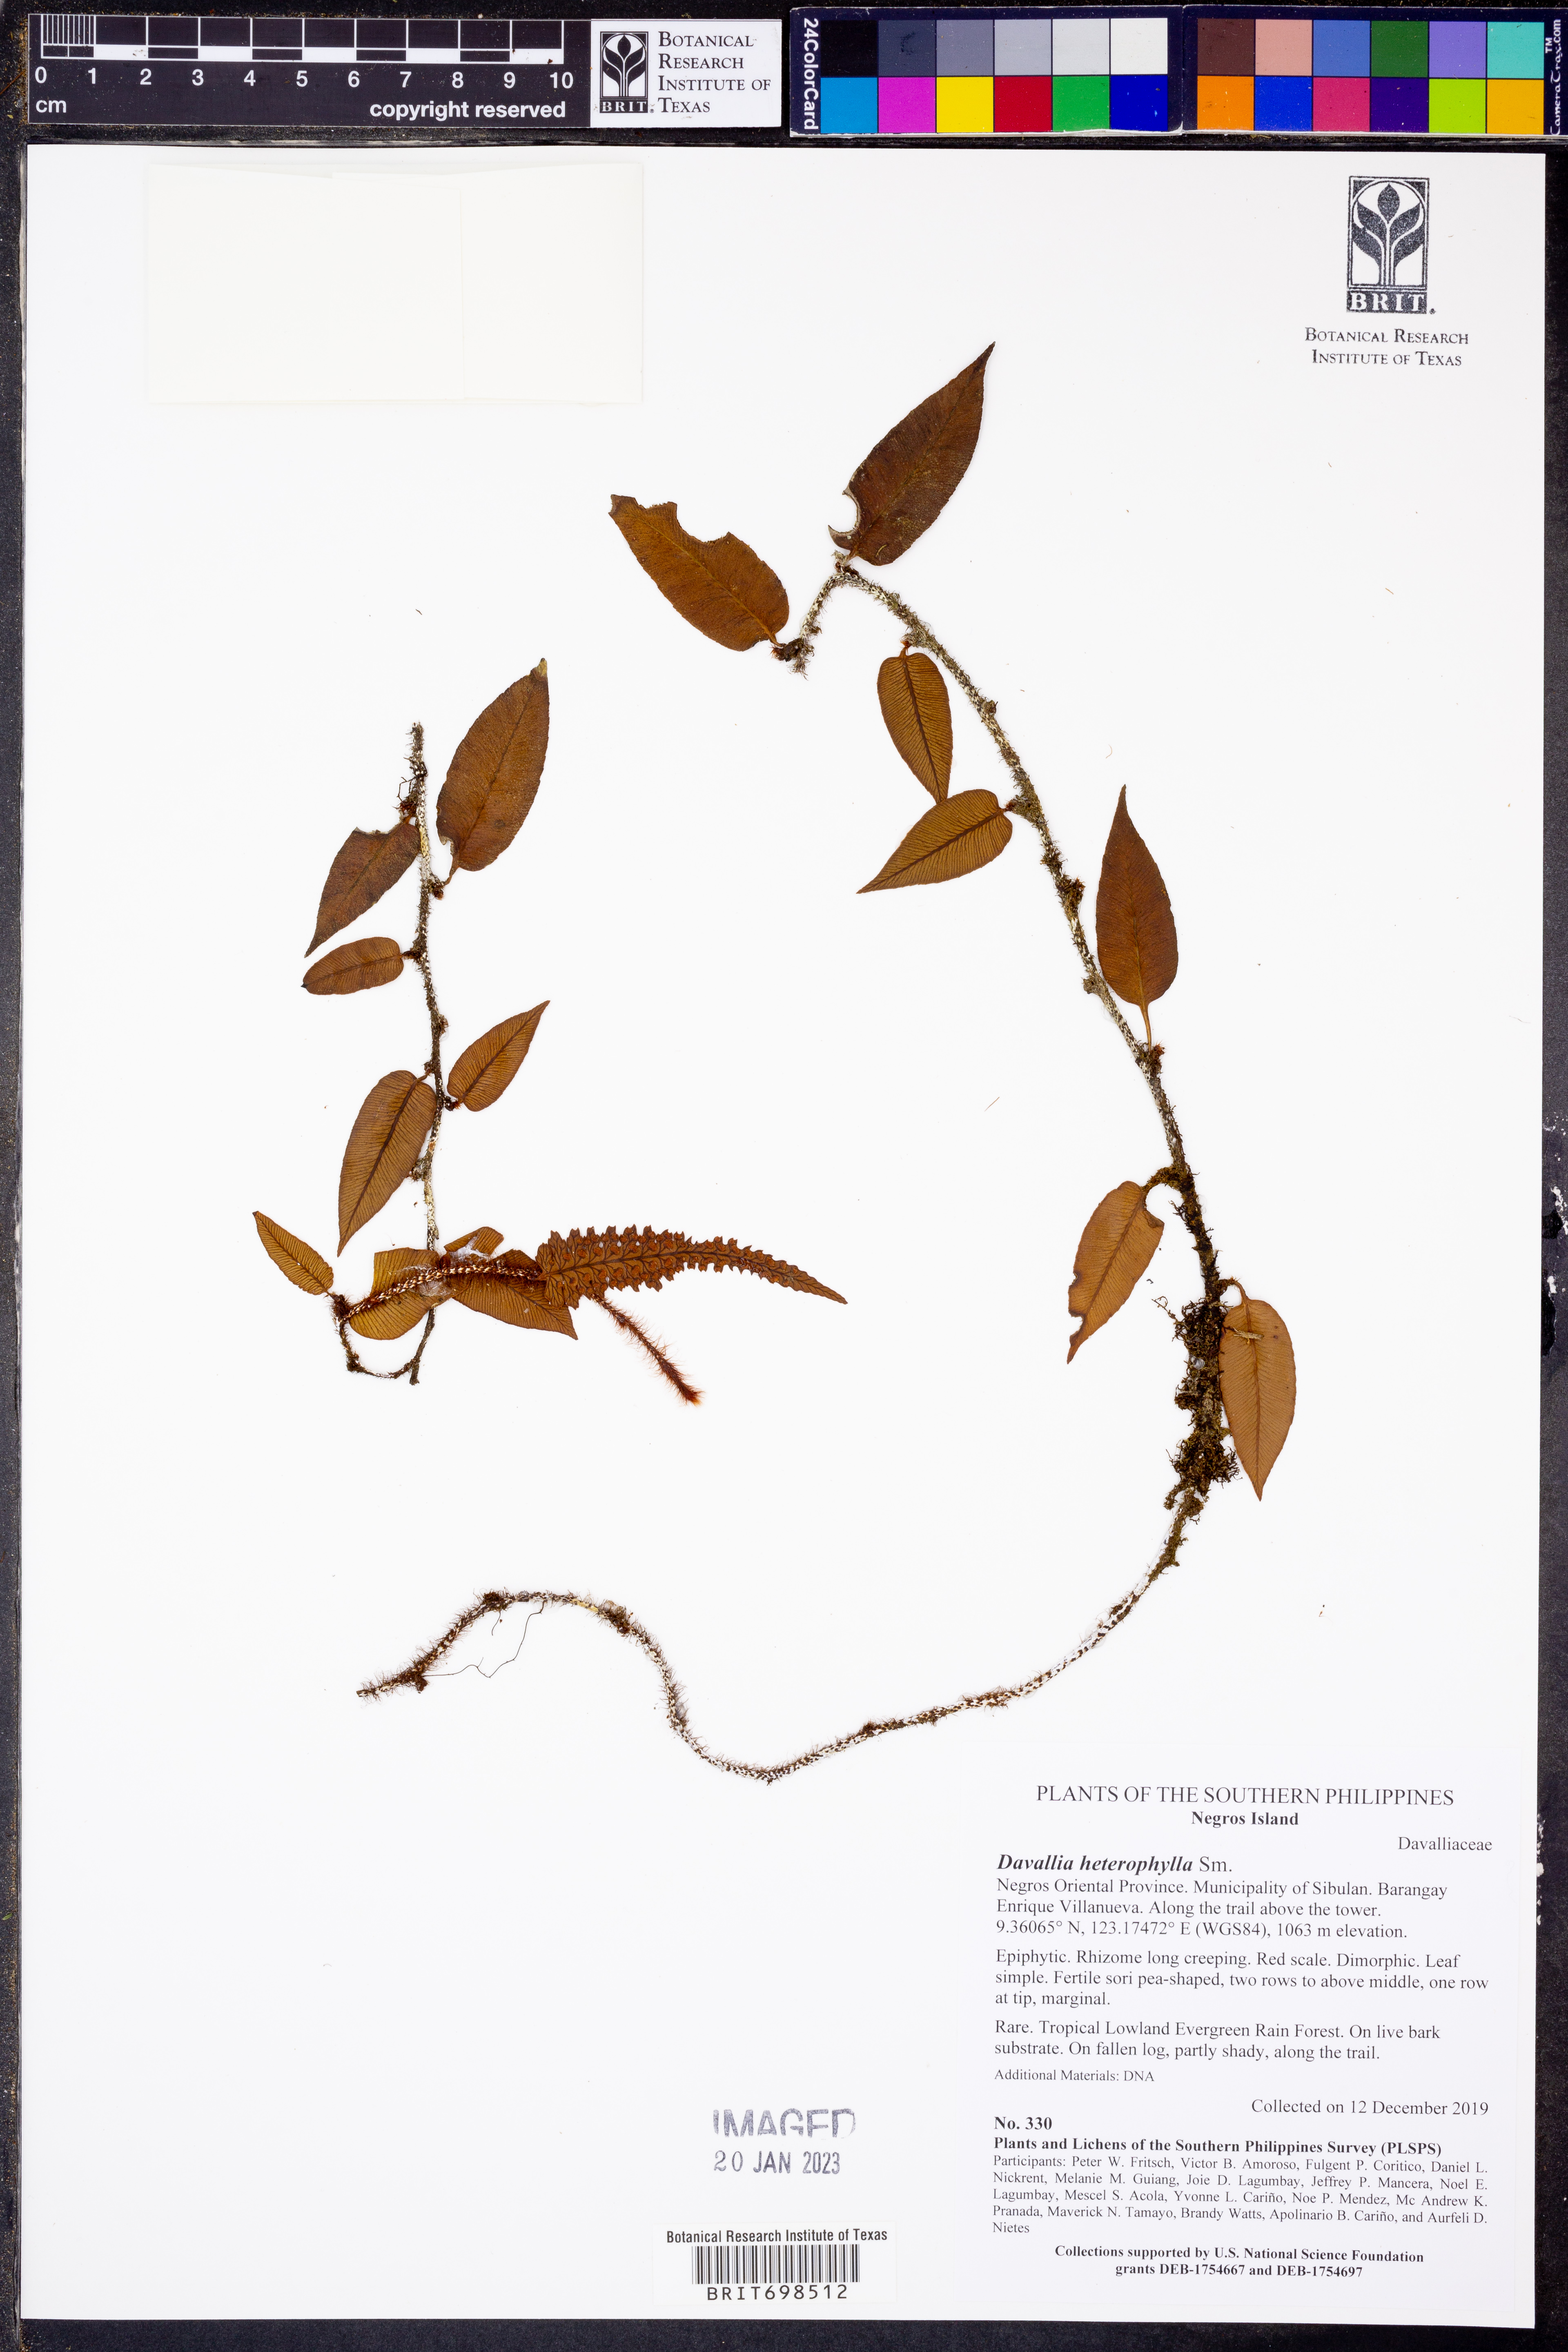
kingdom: Plantae
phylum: Tracheophyta
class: Polypodiopsida
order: Polypodiales
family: Davalliaceae
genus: Davallia
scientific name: Davallia heterophylla
